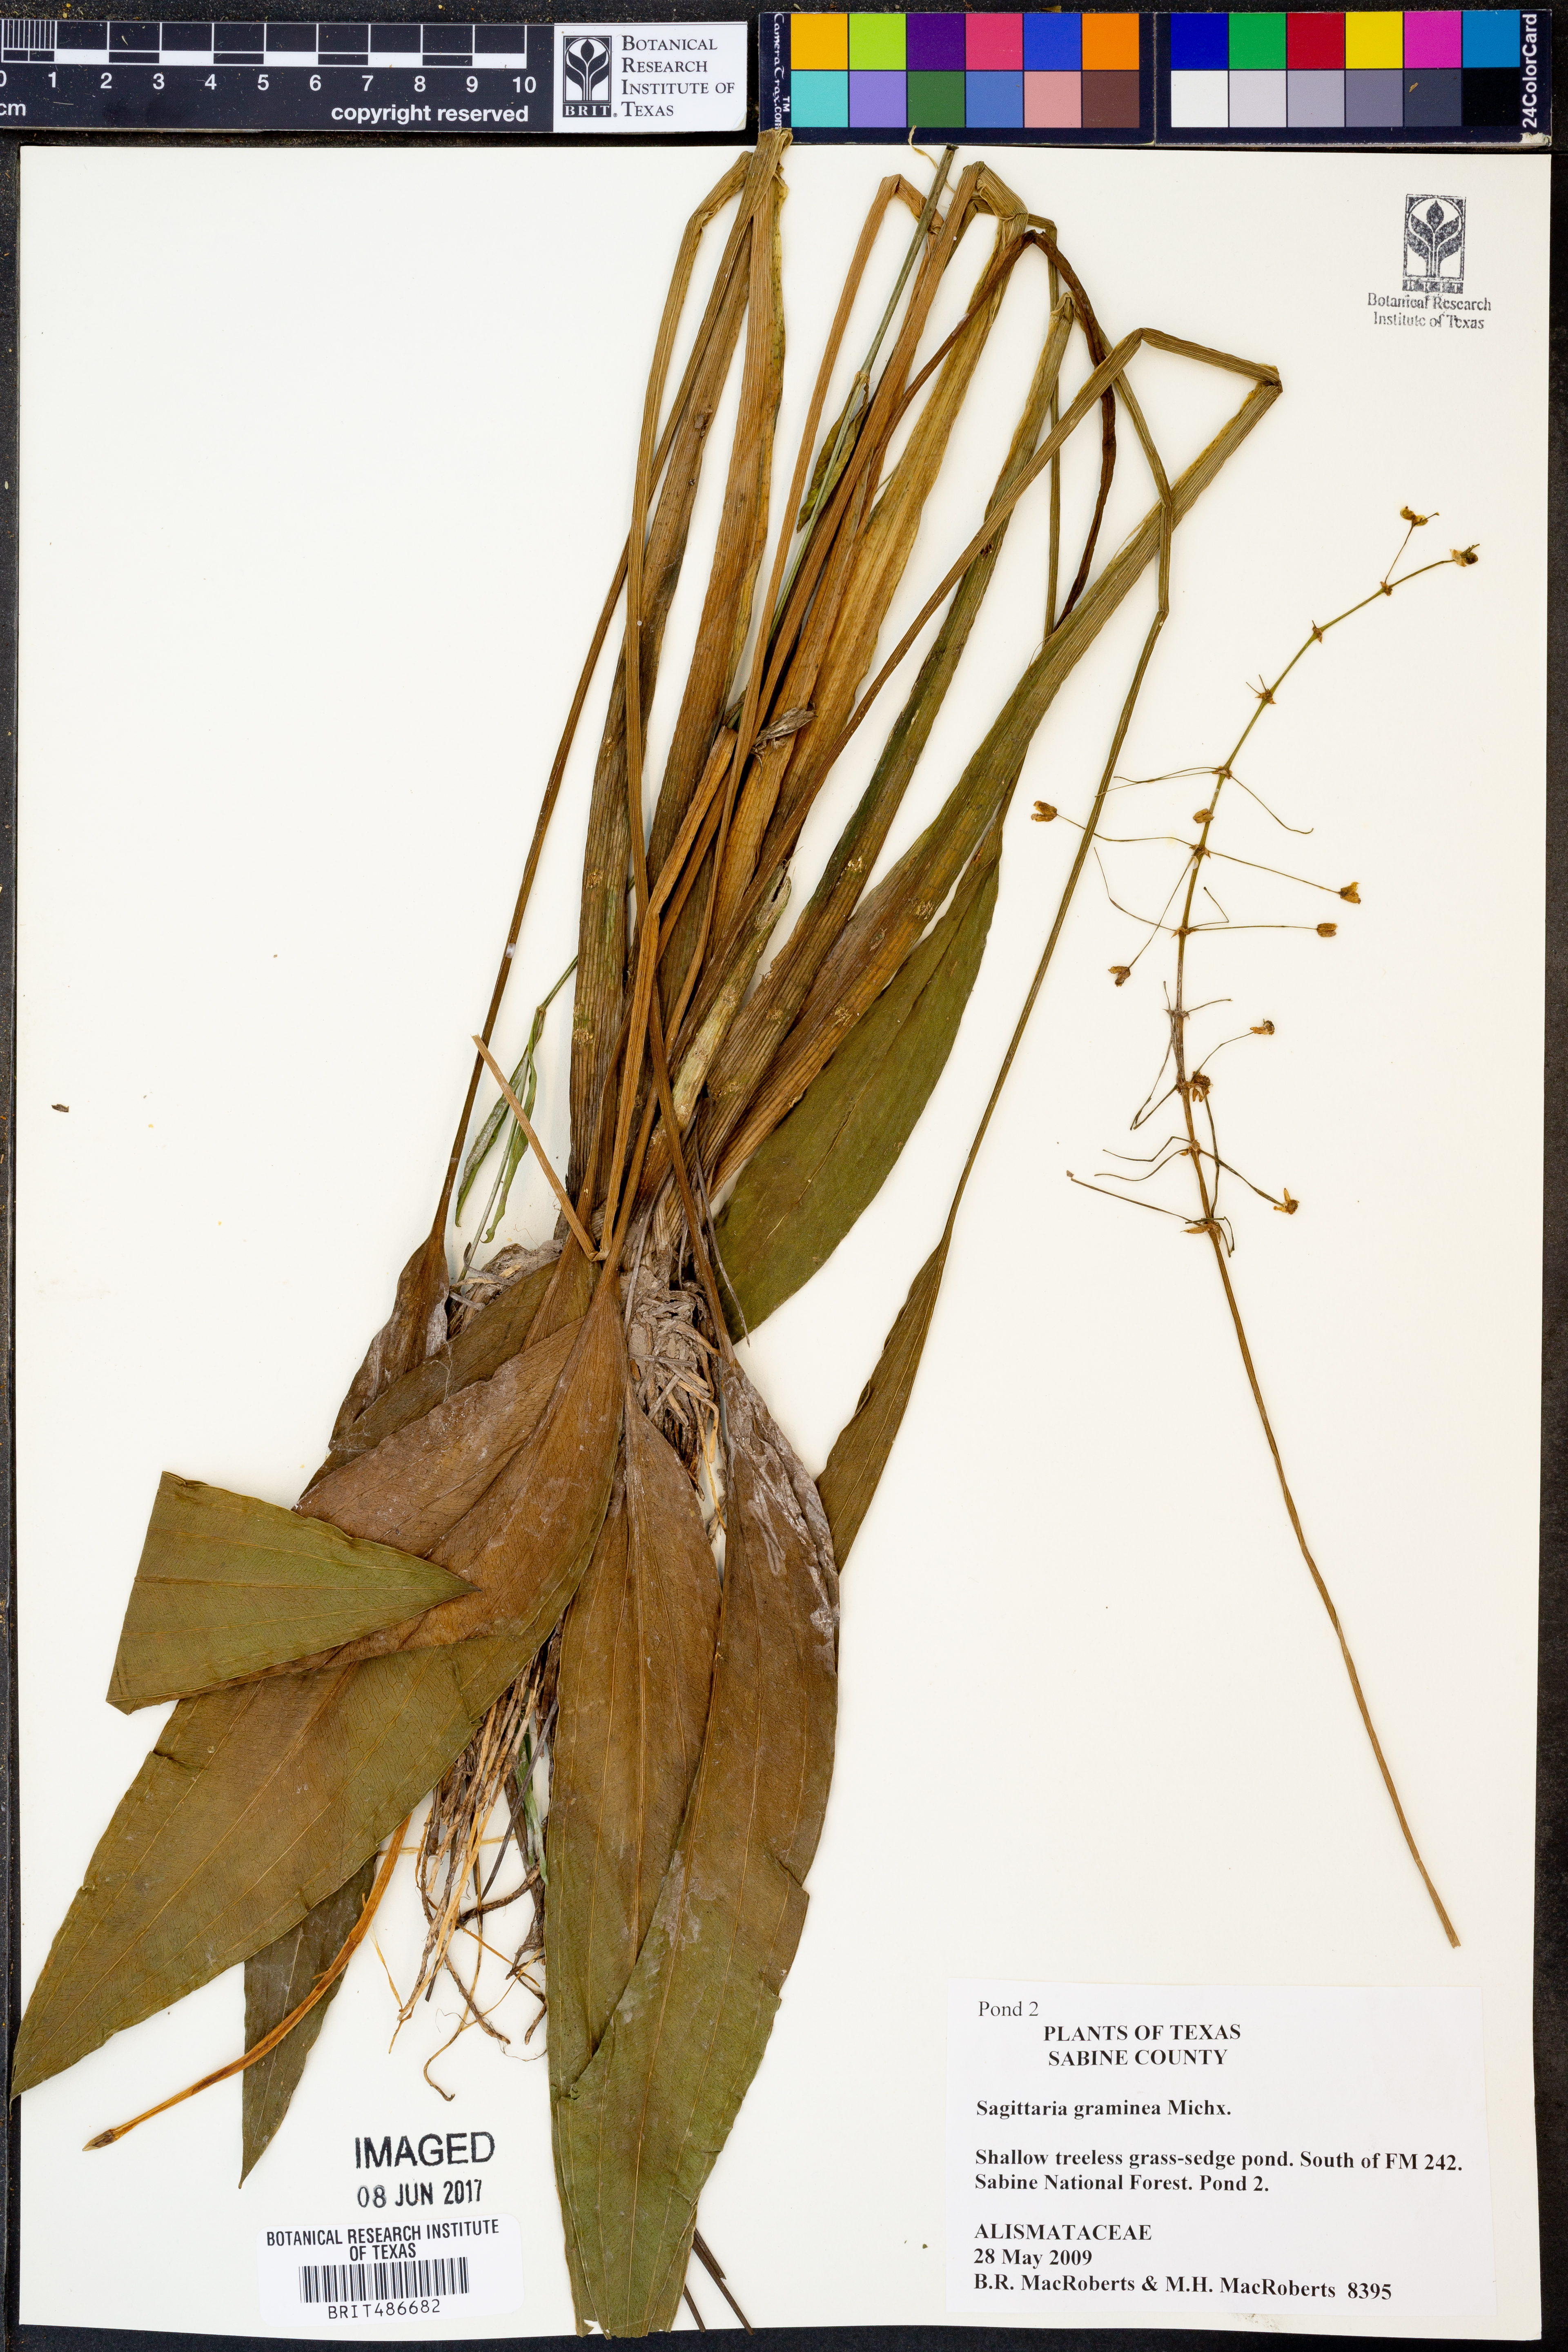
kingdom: Plantae
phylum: Tracheophyta
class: Liliopsida
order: Alismatales
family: Alismataceae
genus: Sagittaria
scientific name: Sagittaria graminea
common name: Grass-leaved arrowhead
